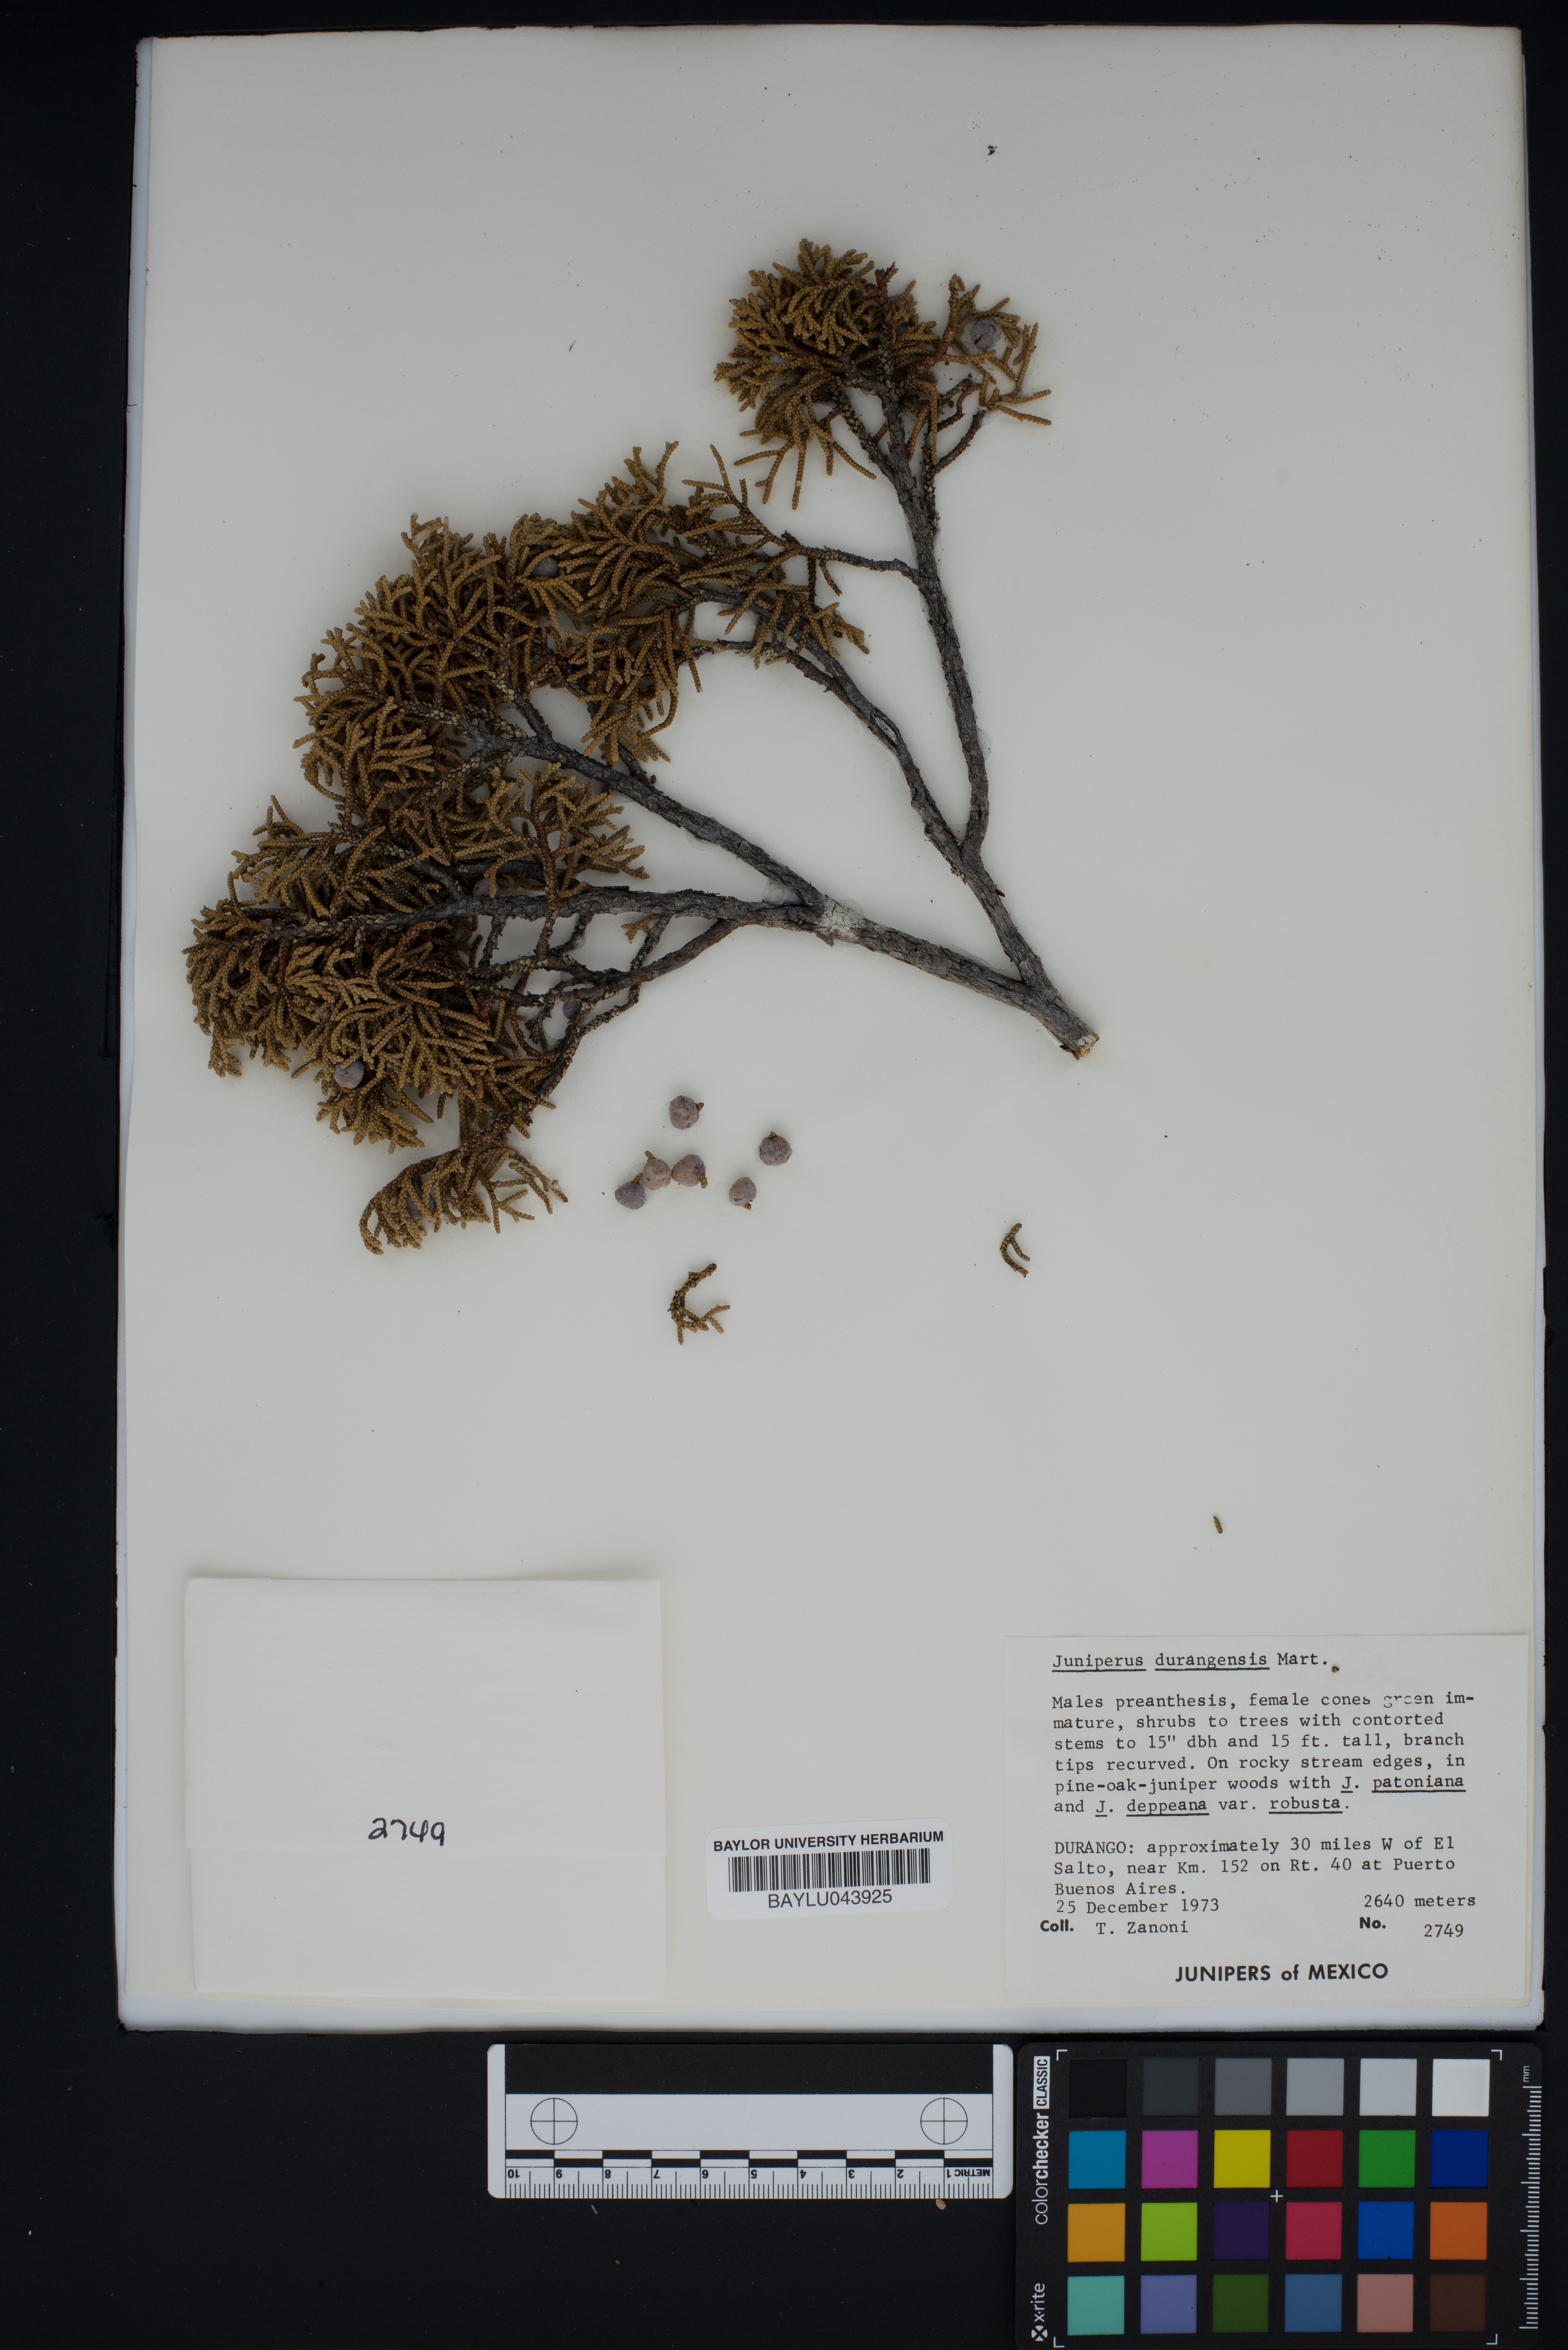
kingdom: Plantae
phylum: Tracheophyta
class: Pinopsida
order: Pinales
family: Cupressaceae
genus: Juniperus
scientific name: Juniperus durangensis
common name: Durango juniper
